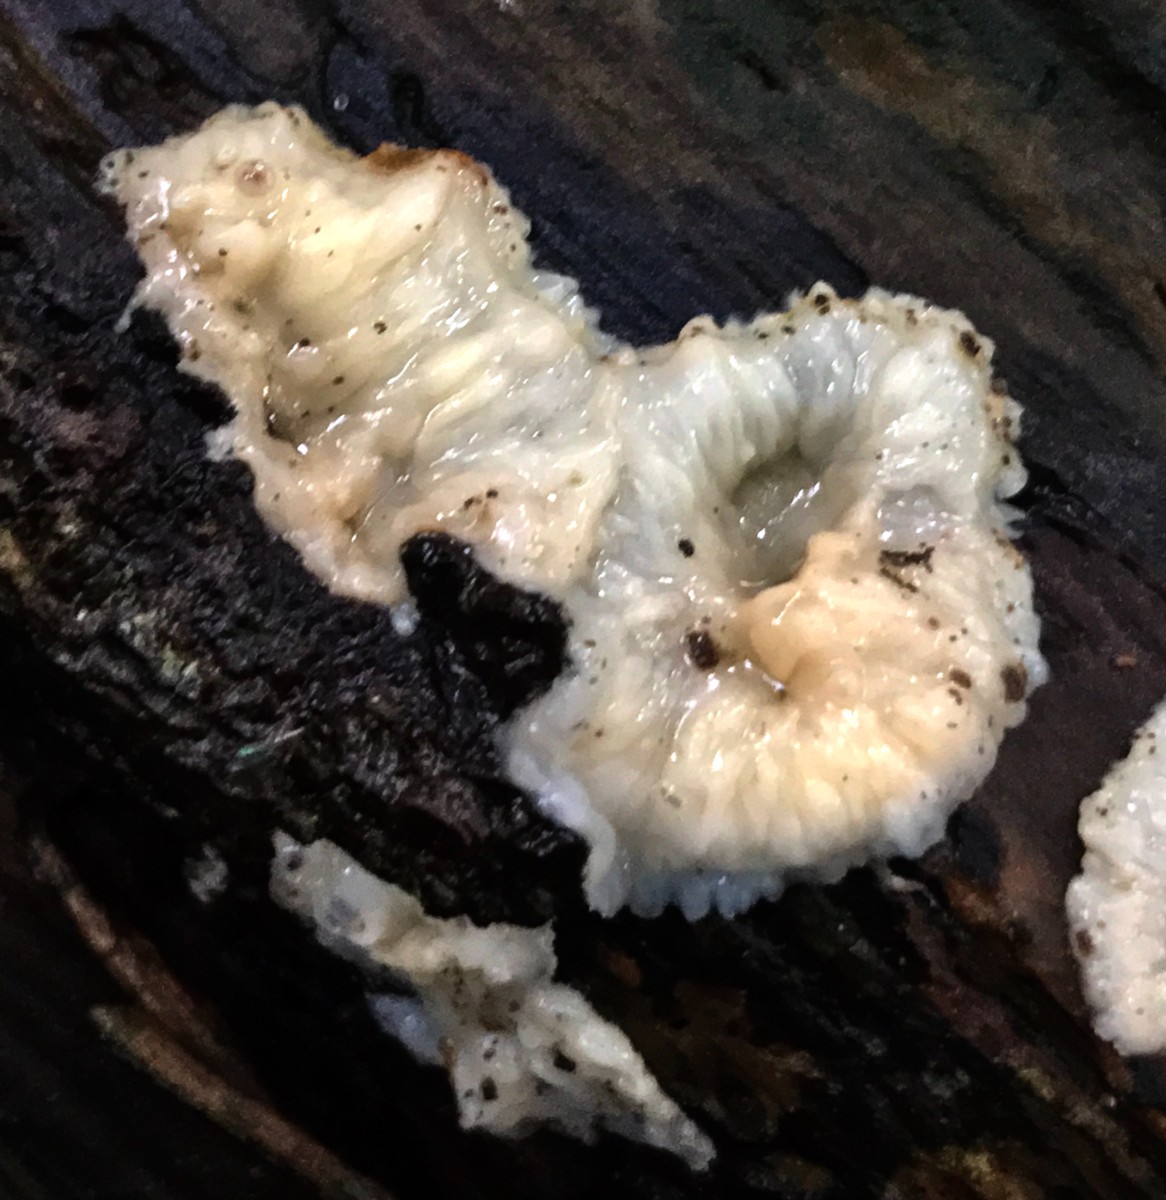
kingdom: Fungi
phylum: Basidiomycota
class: Agaricomycetes
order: Polyporales
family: Meruliaceae
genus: Phlebia
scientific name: Phlebia radiata
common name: stråle-åresvamp
